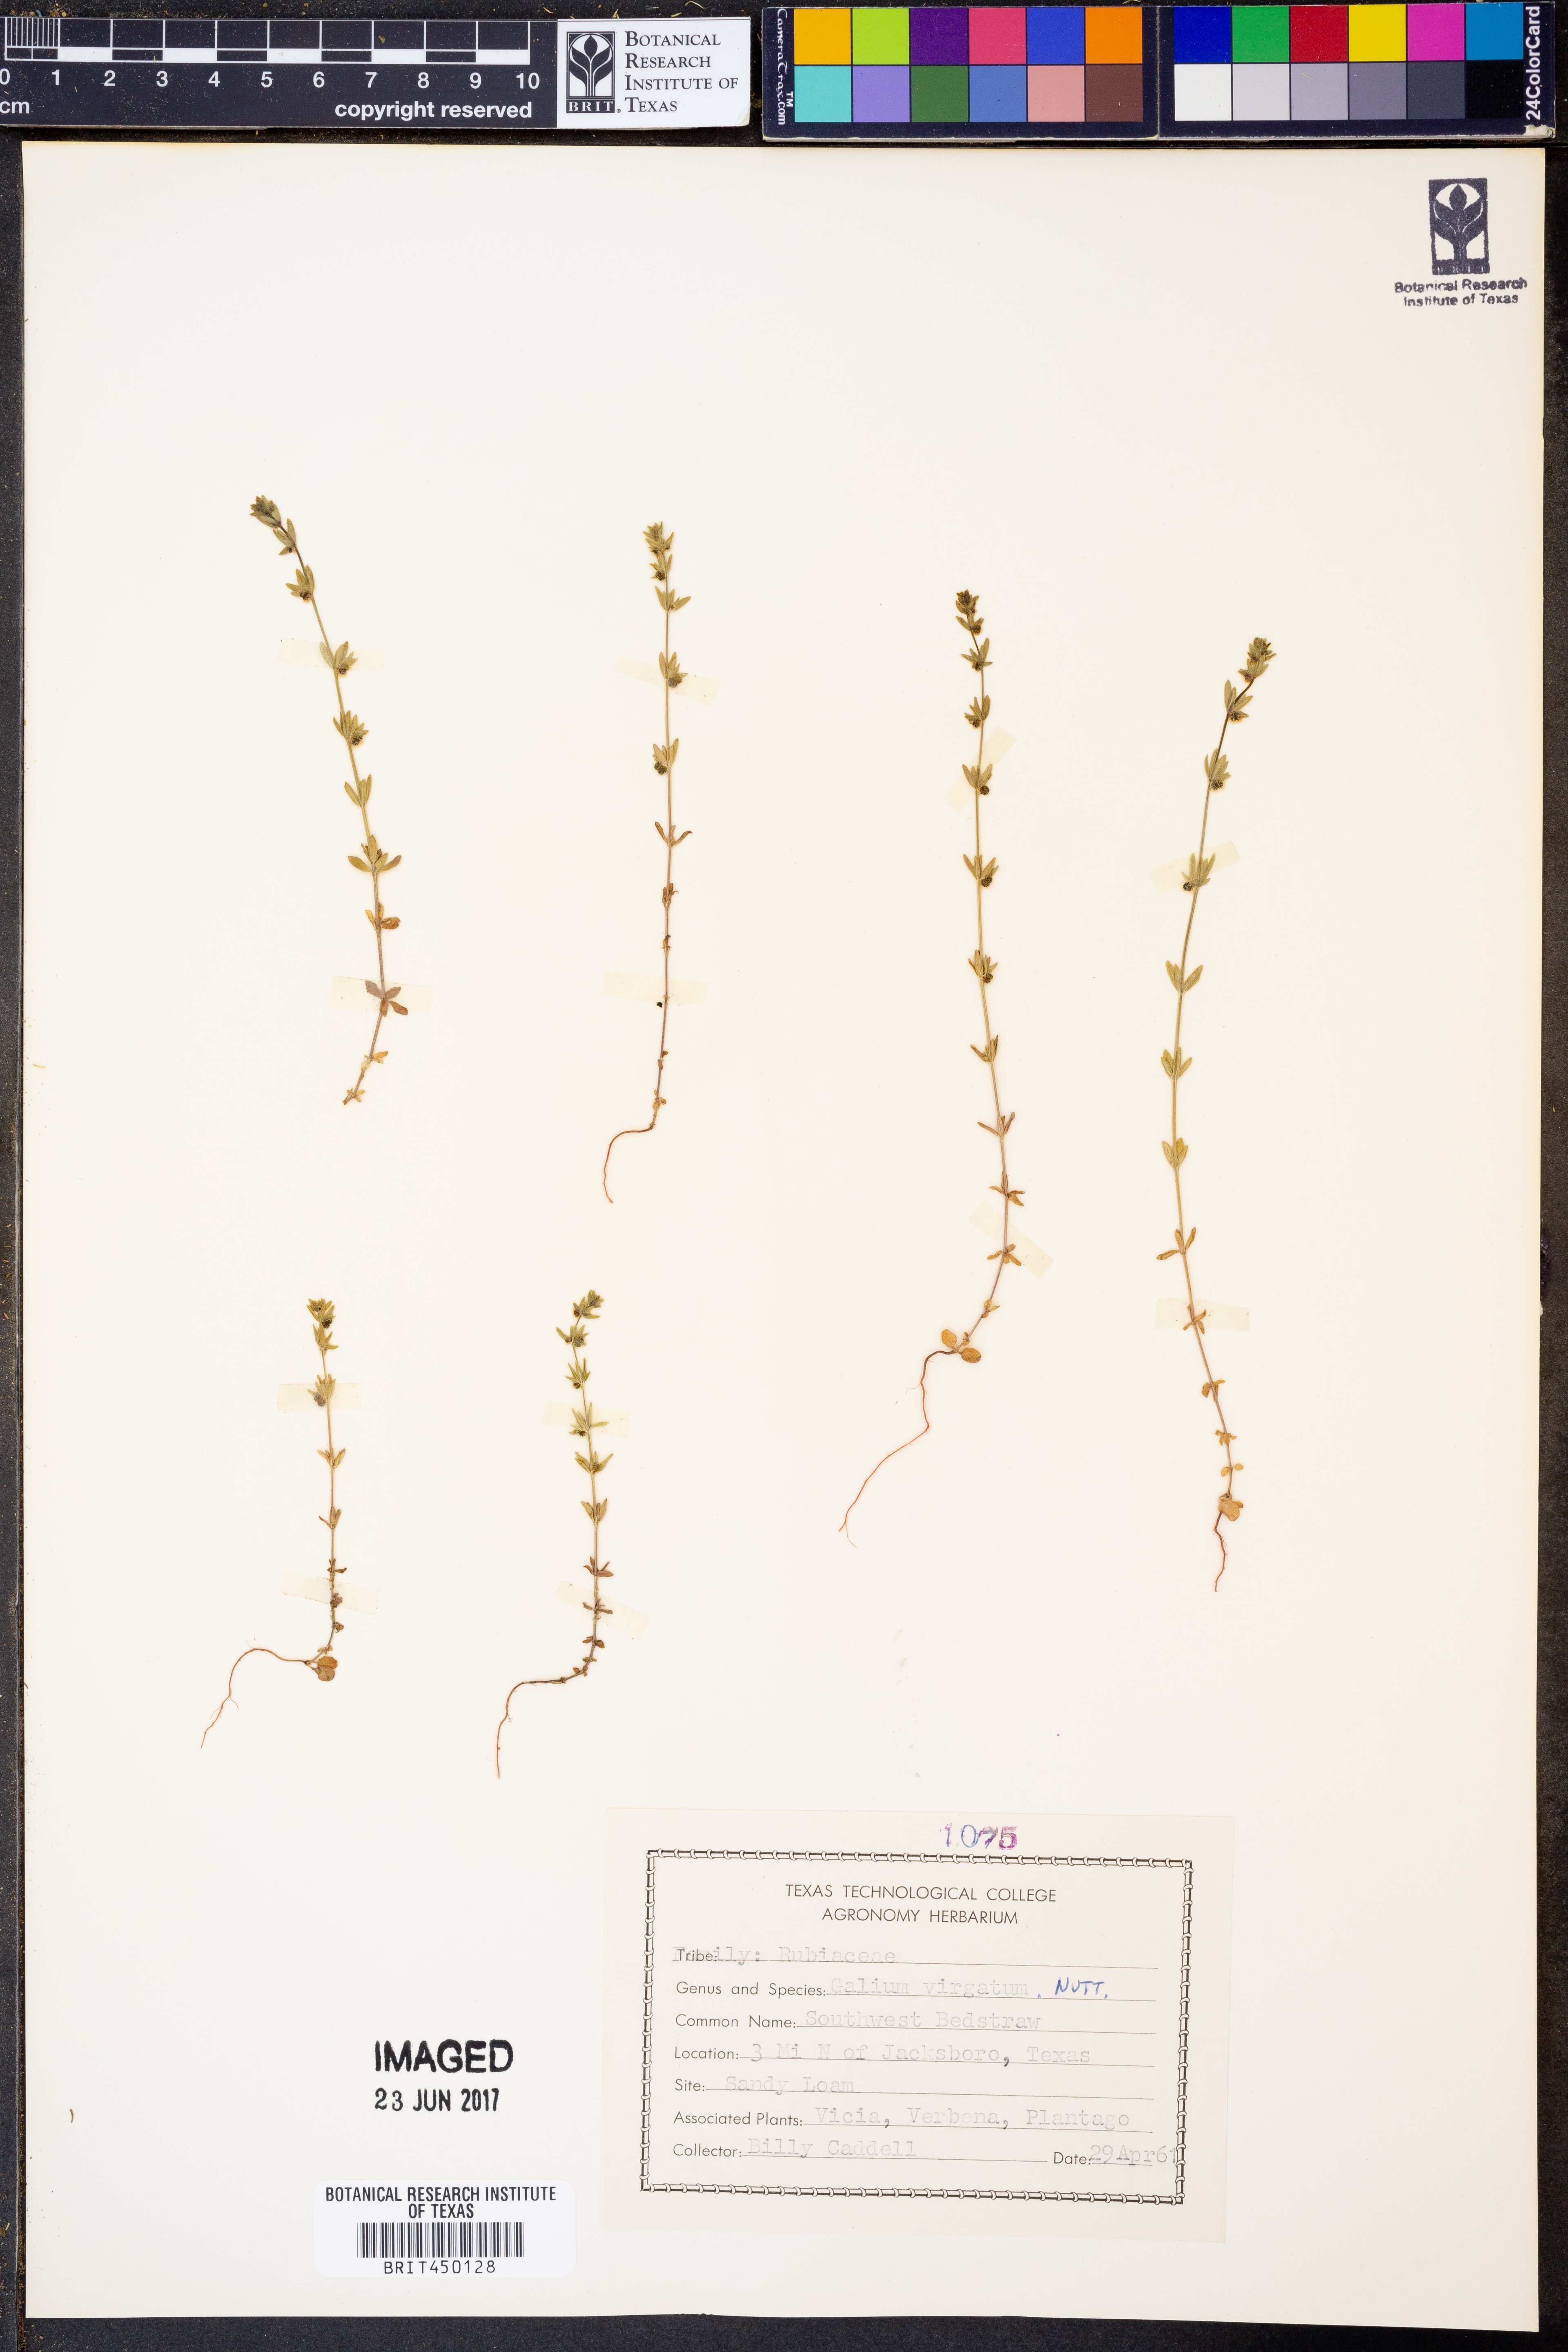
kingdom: Plantae
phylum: Tracheophyta
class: Magnoliopsida
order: Gentianales
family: Rubiaceae
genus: Galium
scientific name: Galium virgatum
